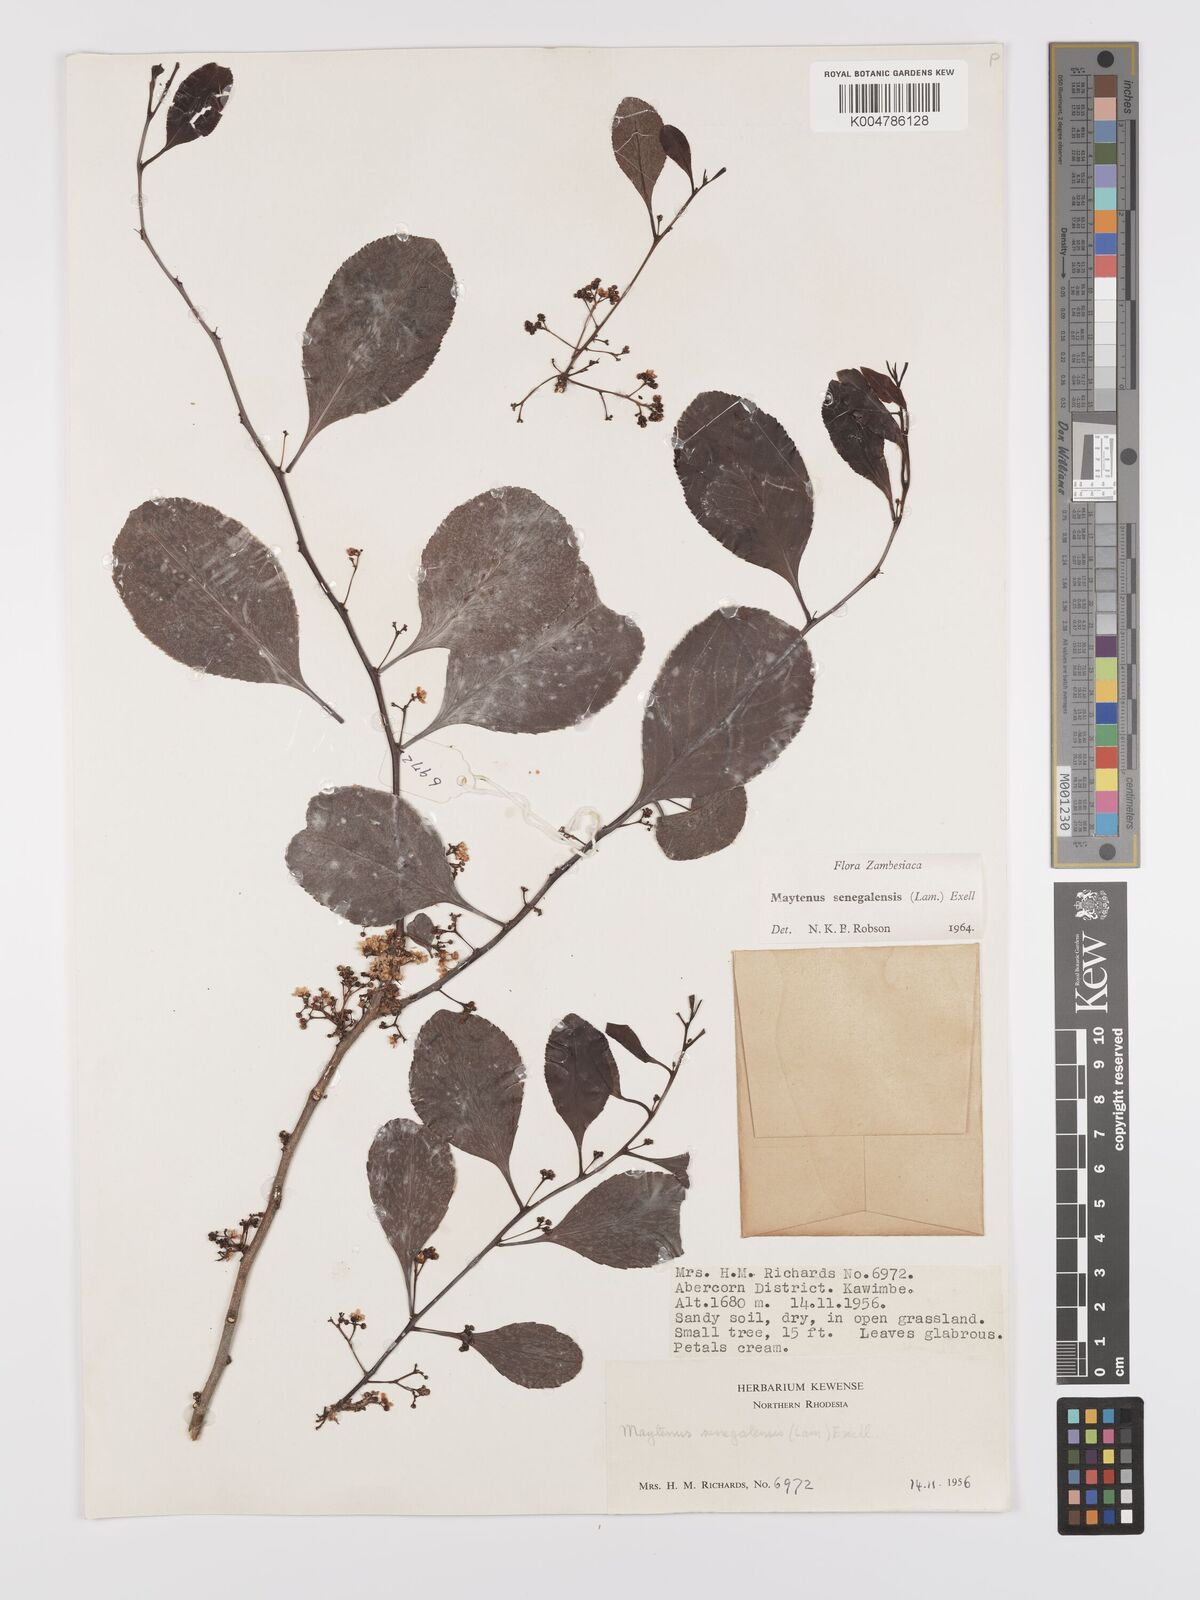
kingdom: Plantae
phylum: Tracheophyta
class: Magnoliopsida
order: Celastrales
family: Celastraceae
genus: Gymnosporia
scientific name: Gymnosporia senegalensis
